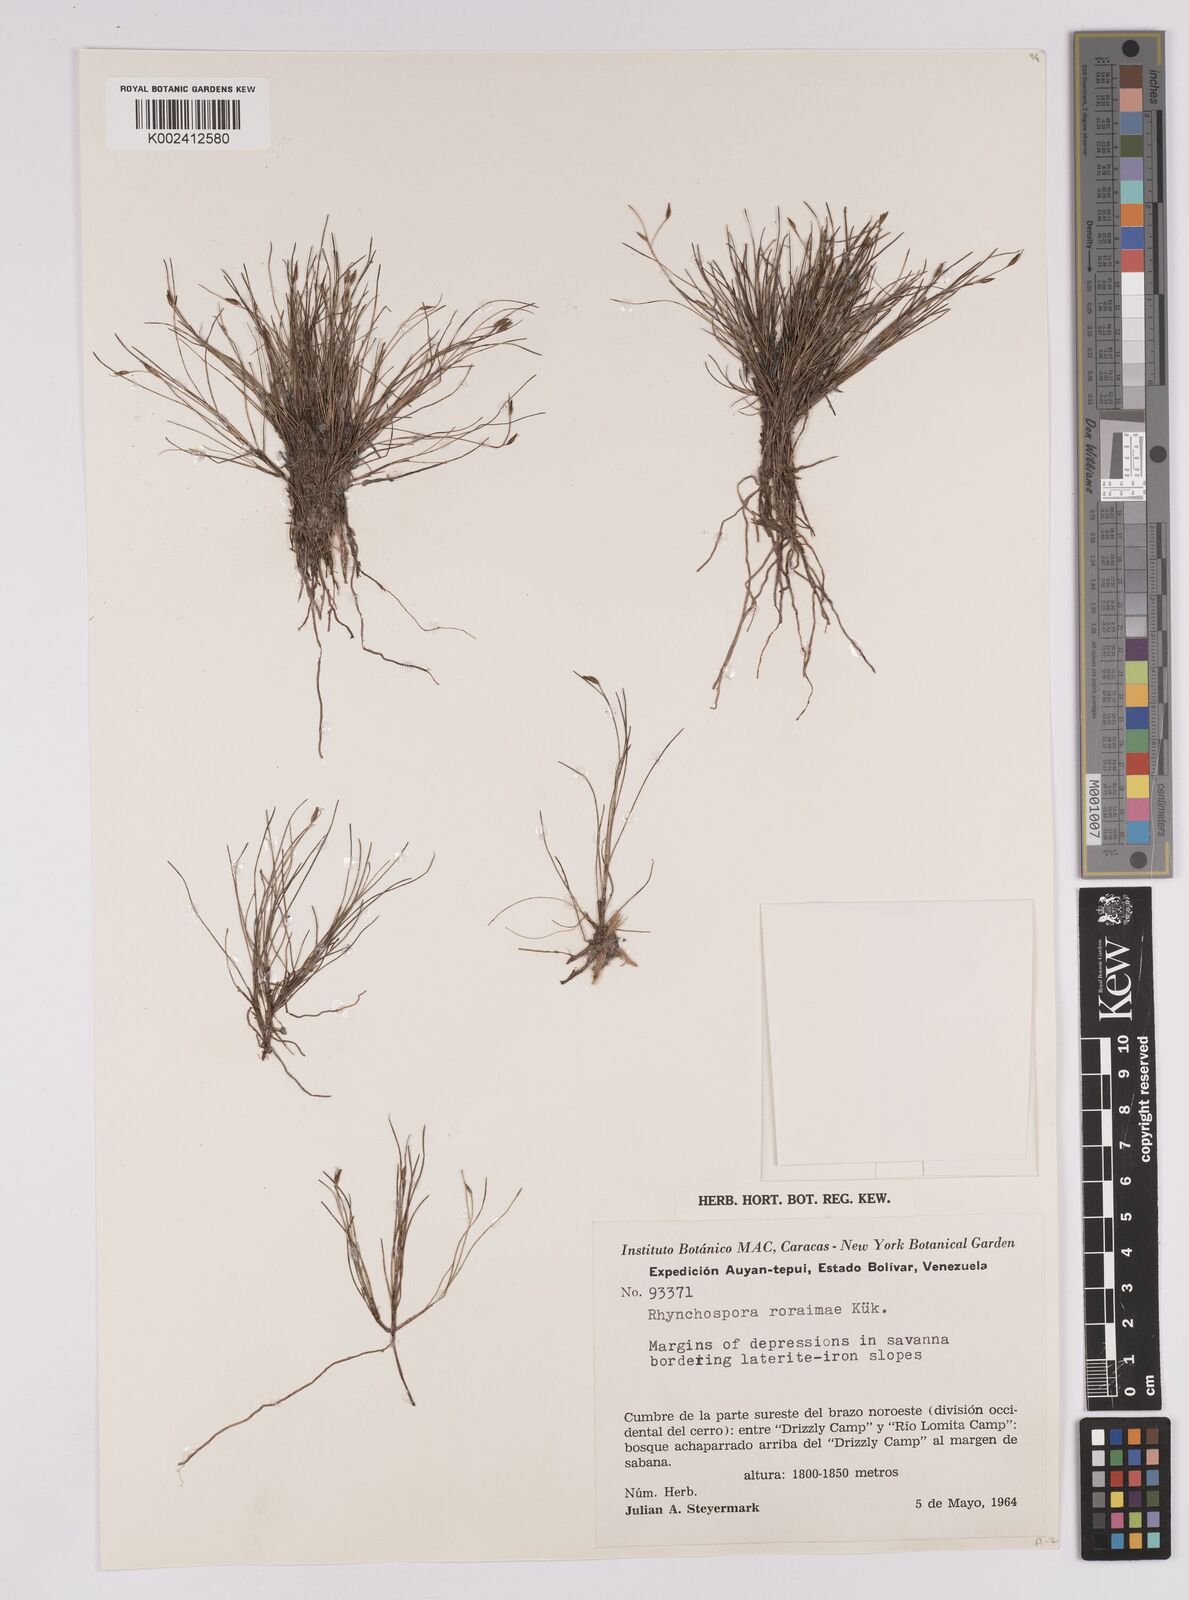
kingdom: Plantae
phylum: Tracheophyta
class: Liliopsida
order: Poales
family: Cyperaceae
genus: Rhynchospora
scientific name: Rhynchospora roraimae
